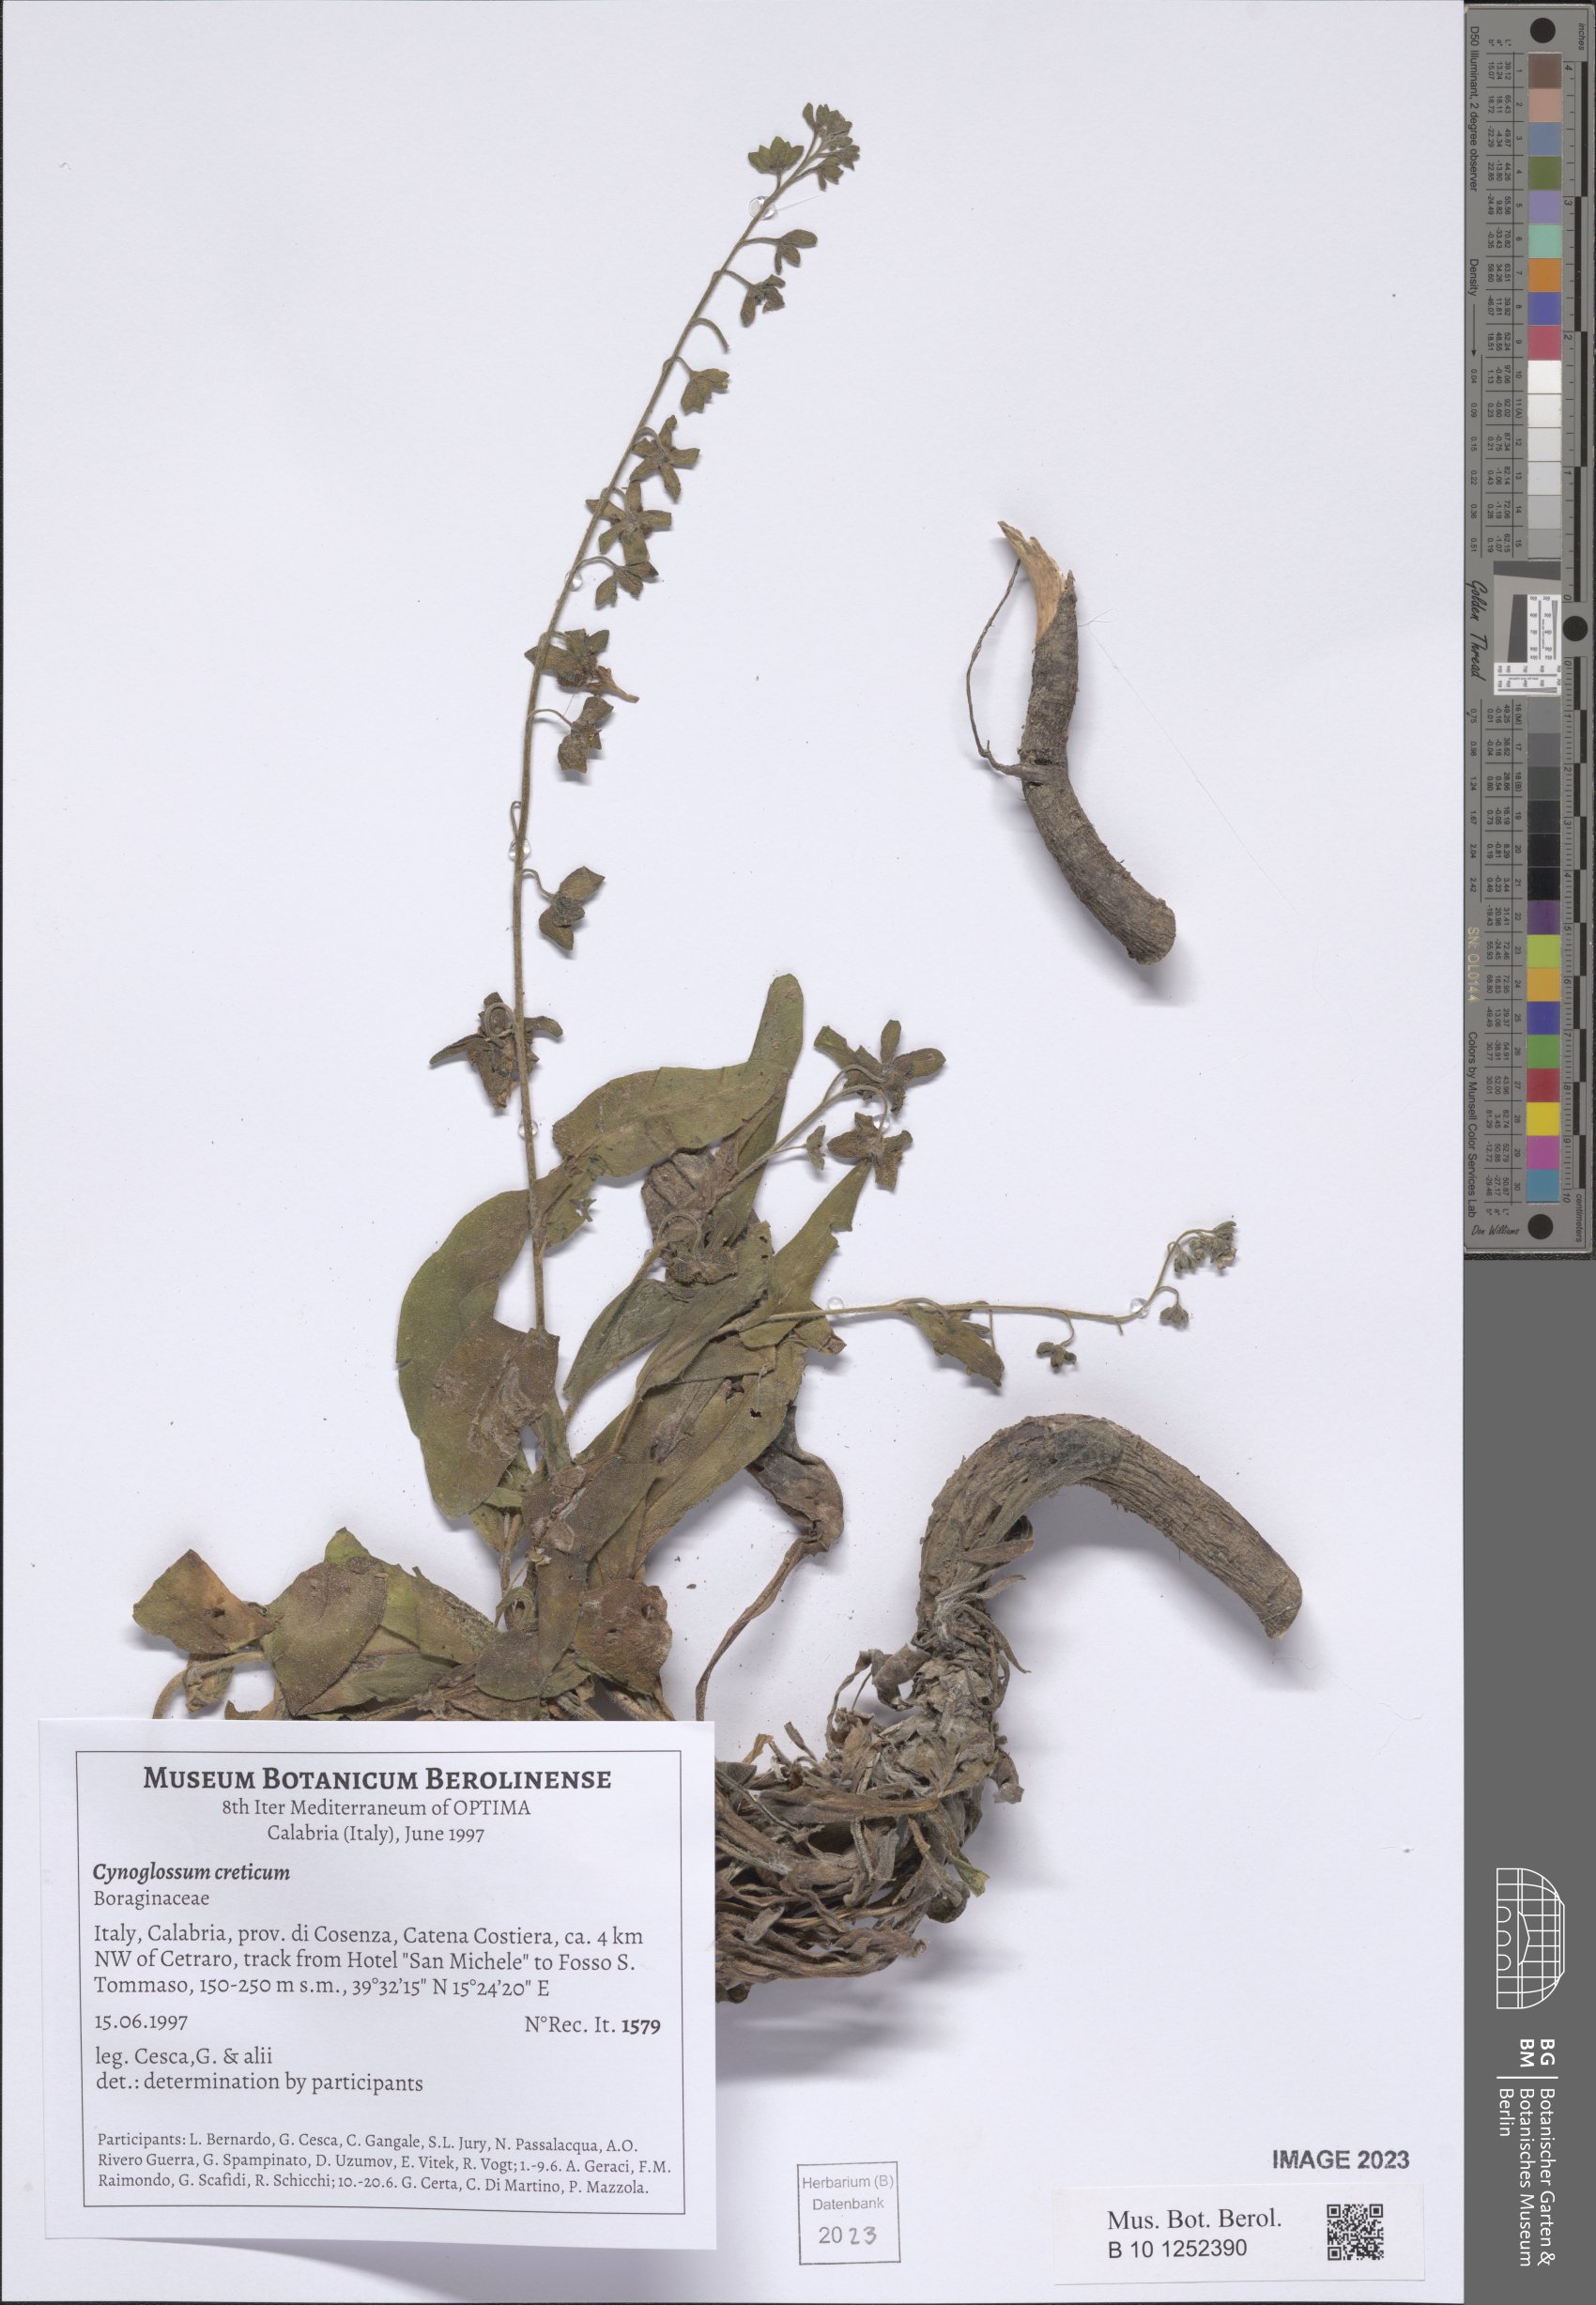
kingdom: Plantae
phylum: Tracheophyta
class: Magnoliopsida
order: Boraginales
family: Boraginaceae
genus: Cynoglossum
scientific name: Cynoglossum creticum
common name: Blue hound's tongue
